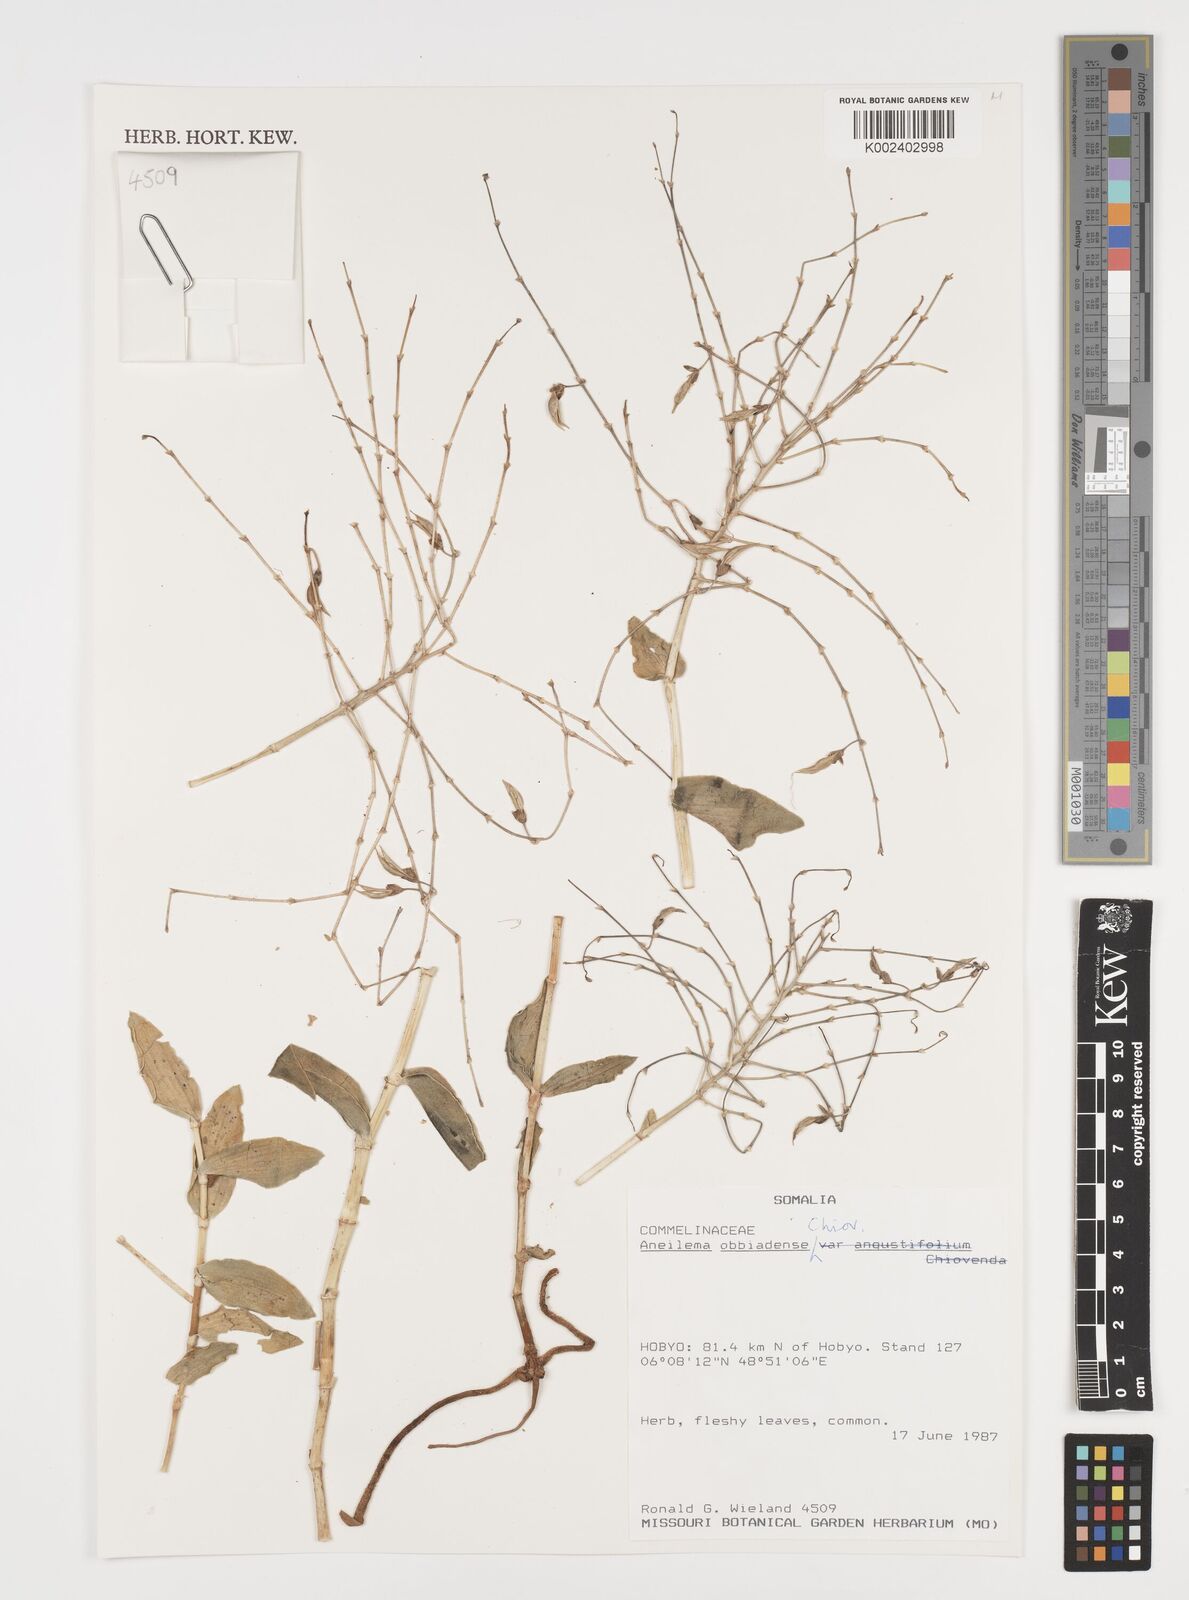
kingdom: Plantae
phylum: Tracheophyta
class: Liliopsida
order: Commelinales
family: Commelinaceae
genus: Aneilema
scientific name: Aneilema longicapsa
